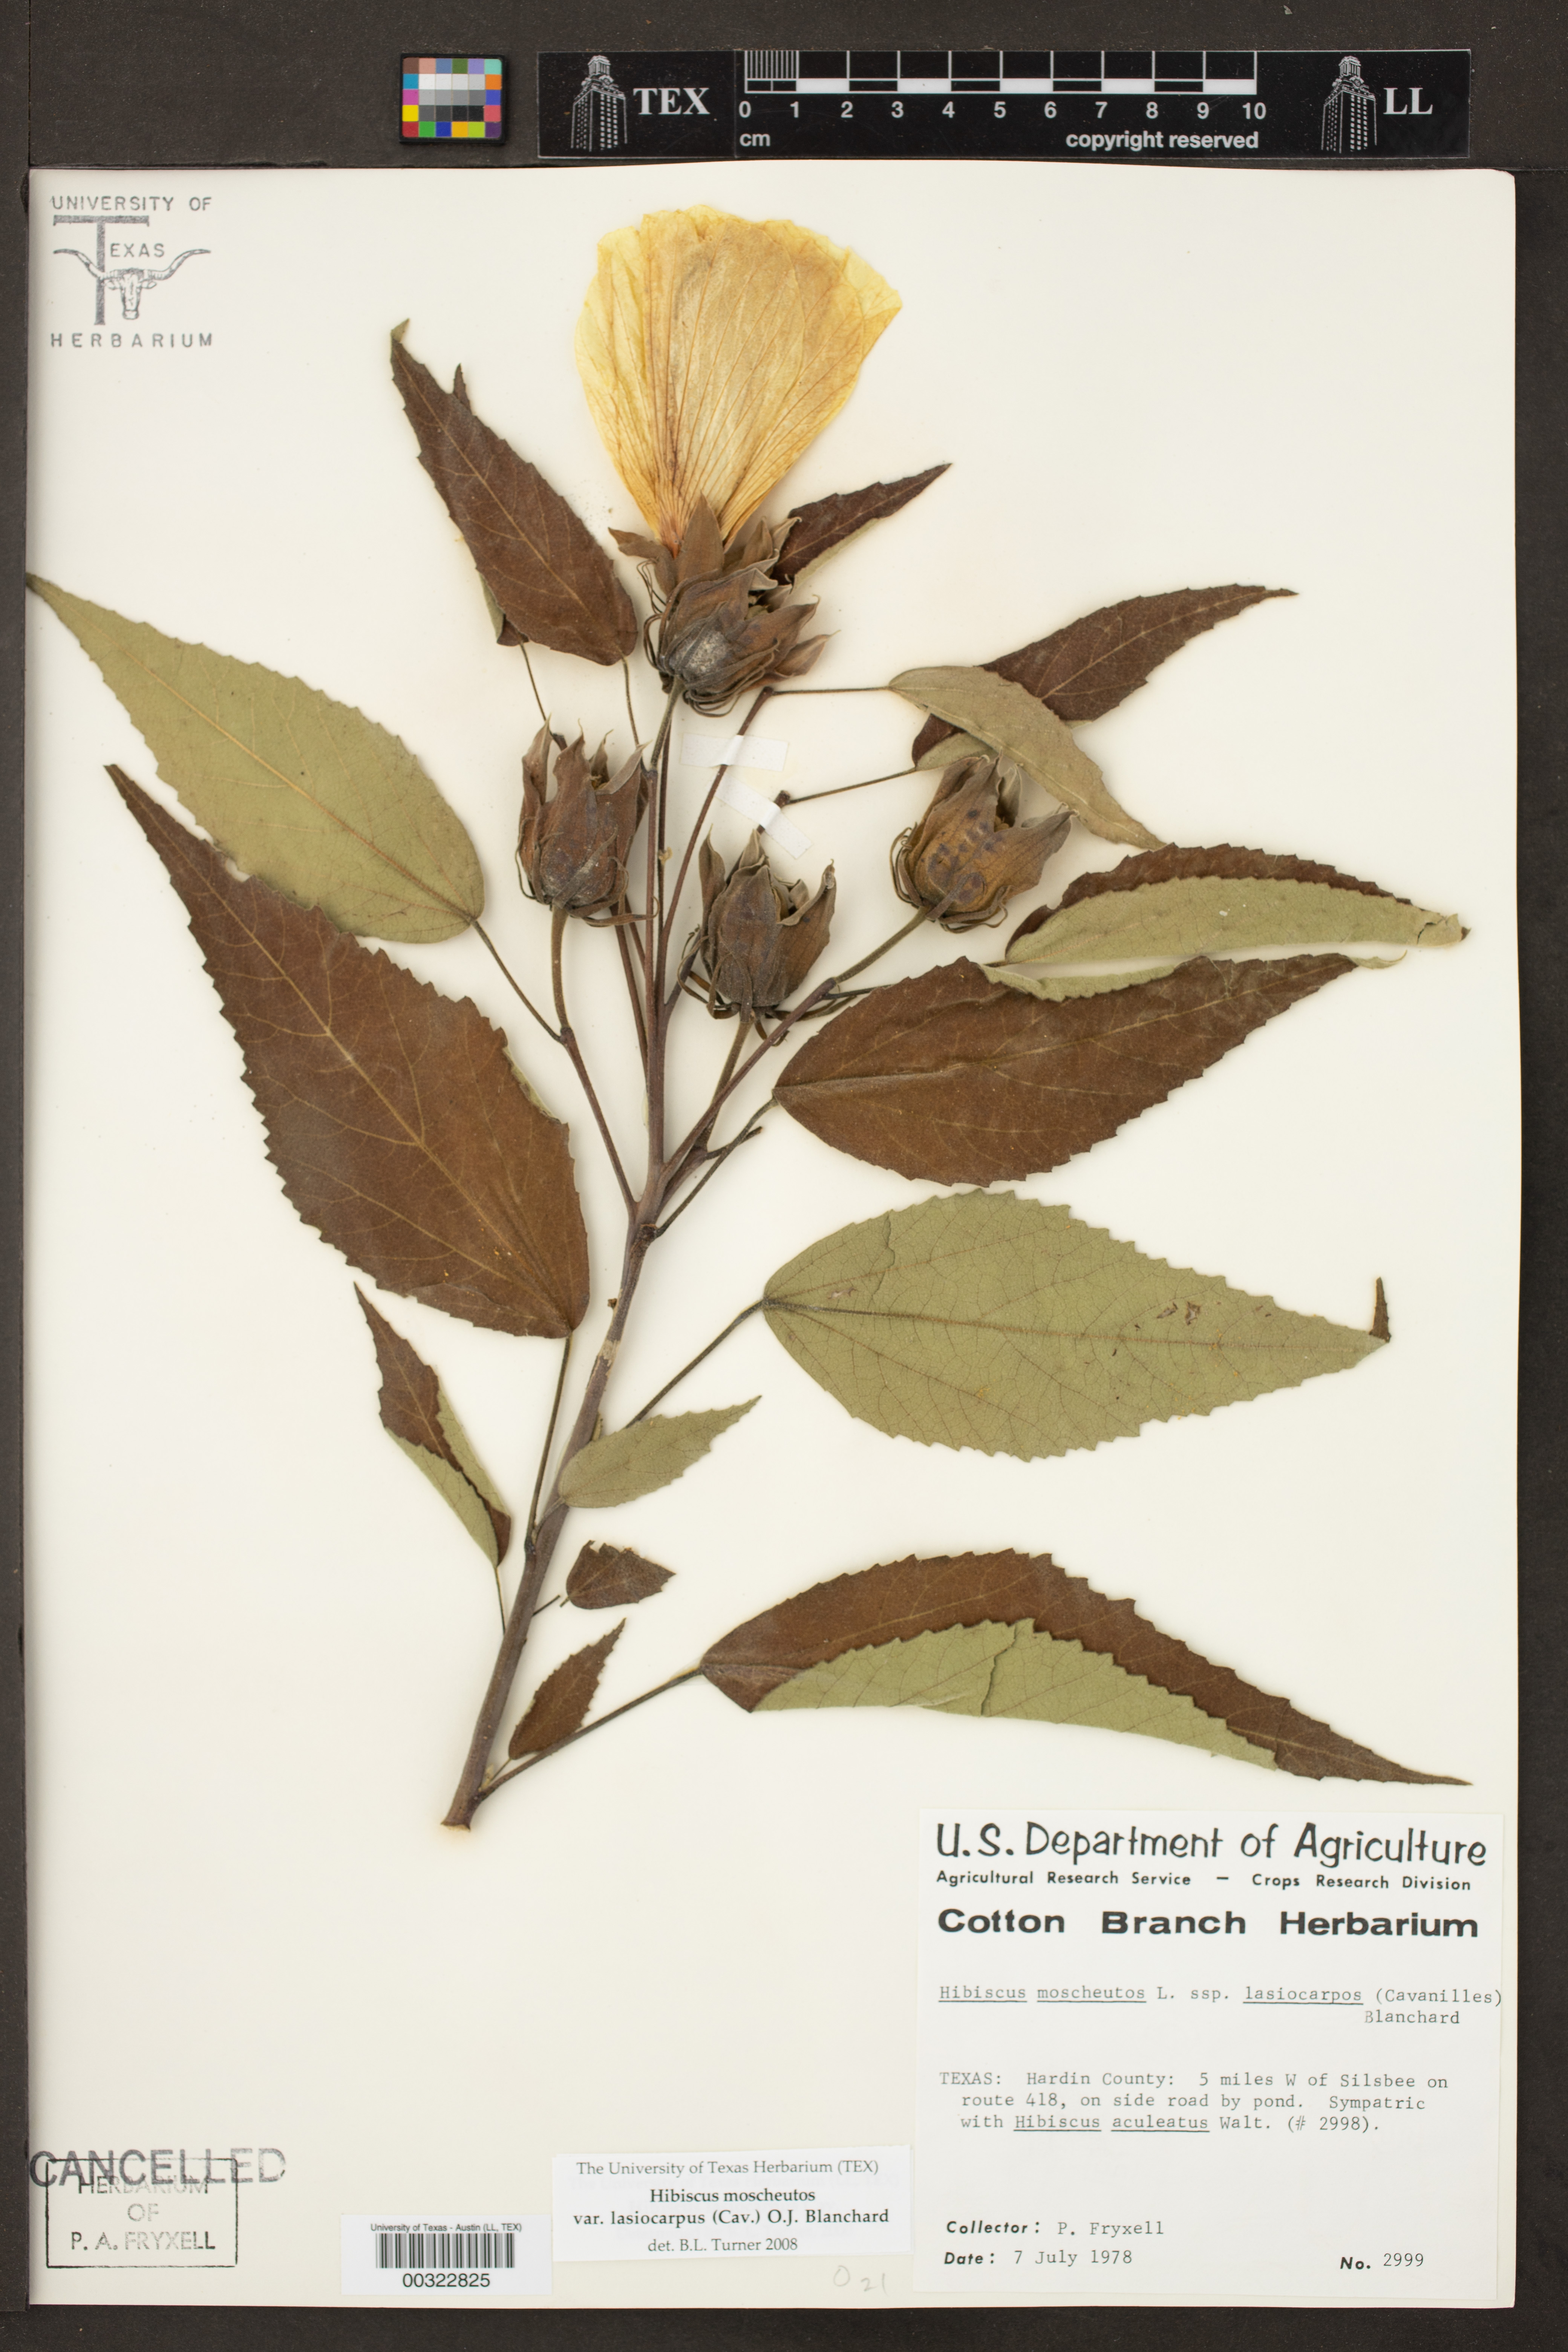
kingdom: Plantae
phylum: Tracheophyta
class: Magnoliopsida
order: Malvales
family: Malvaceae
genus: Hibiscus
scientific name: Hibiscus moscheutos
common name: Common rose-mallow
